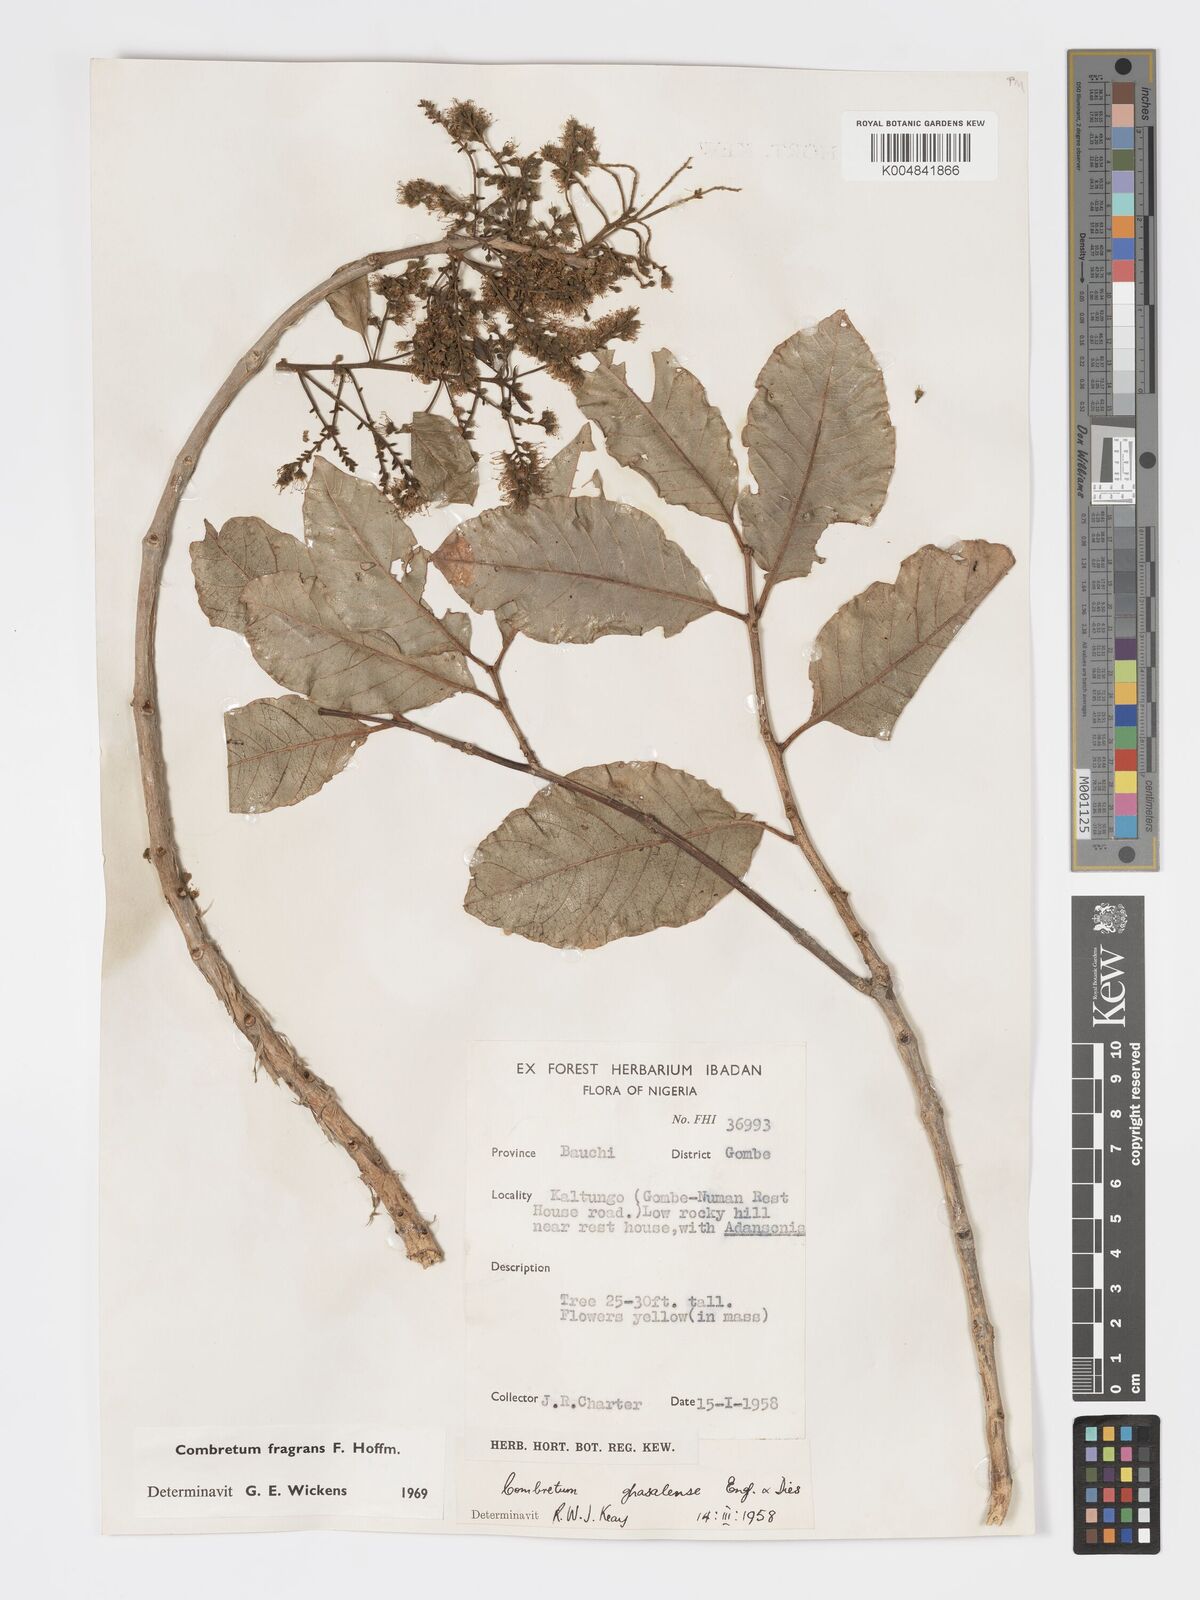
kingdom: Plantae
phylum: Tracheophyta
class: Magnoliopsida
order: Myrtales
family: Combretaceae
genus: Combretum
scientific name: Combretum adenogonium
